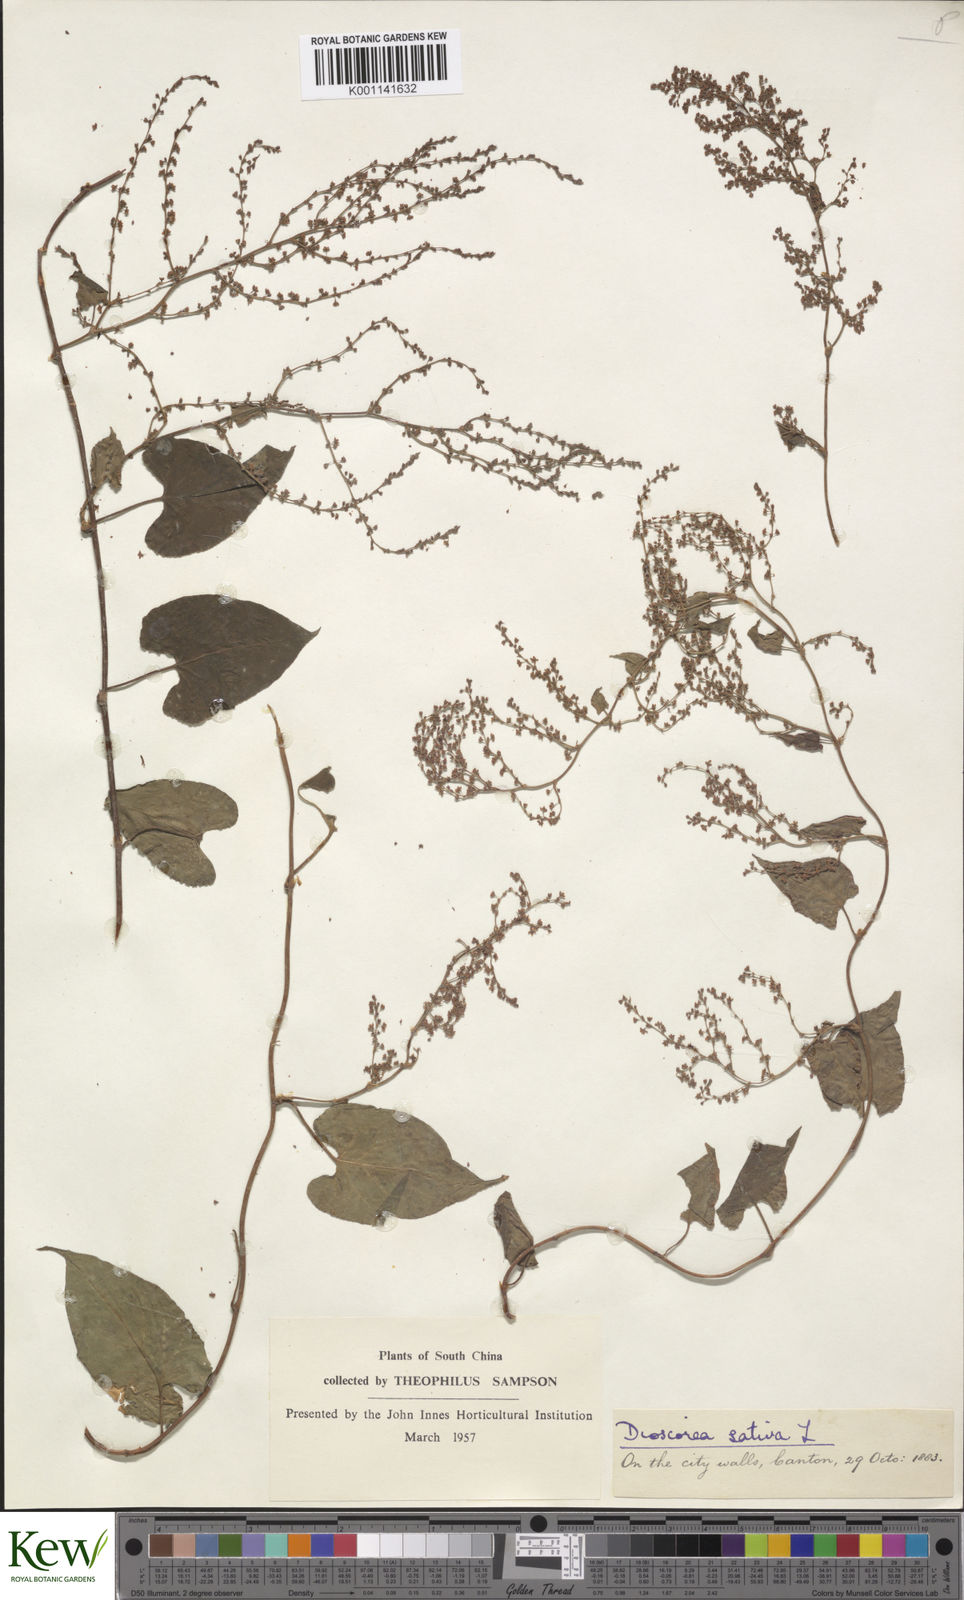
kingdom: Plantae
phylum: Tracheophyta
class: Liliopsida
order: Dioscoreales
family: Dioscoreaceae
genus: Dioscorea
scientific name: Dioscorea bulbifera
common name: Air yam
